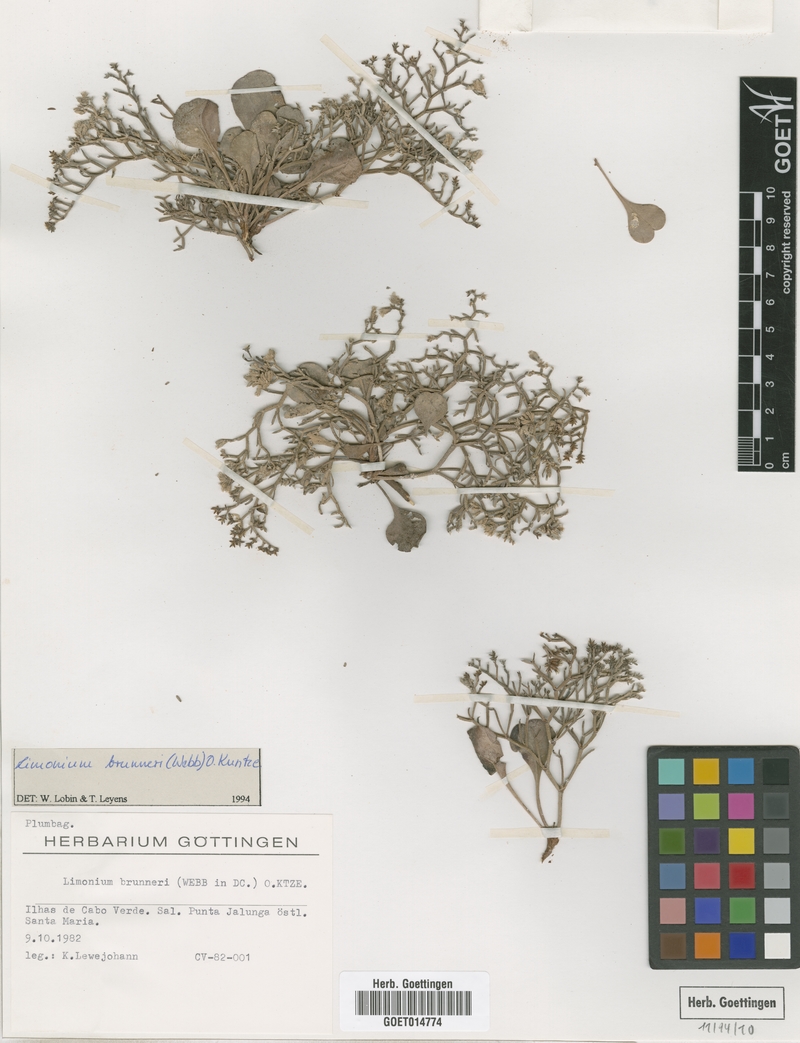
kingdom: Plantae
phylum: Tracheophyta
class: Magnoliopsida
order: Caryophyllales
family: Plumbaginaceae
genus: Limonium
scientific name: Limonium brunneri
